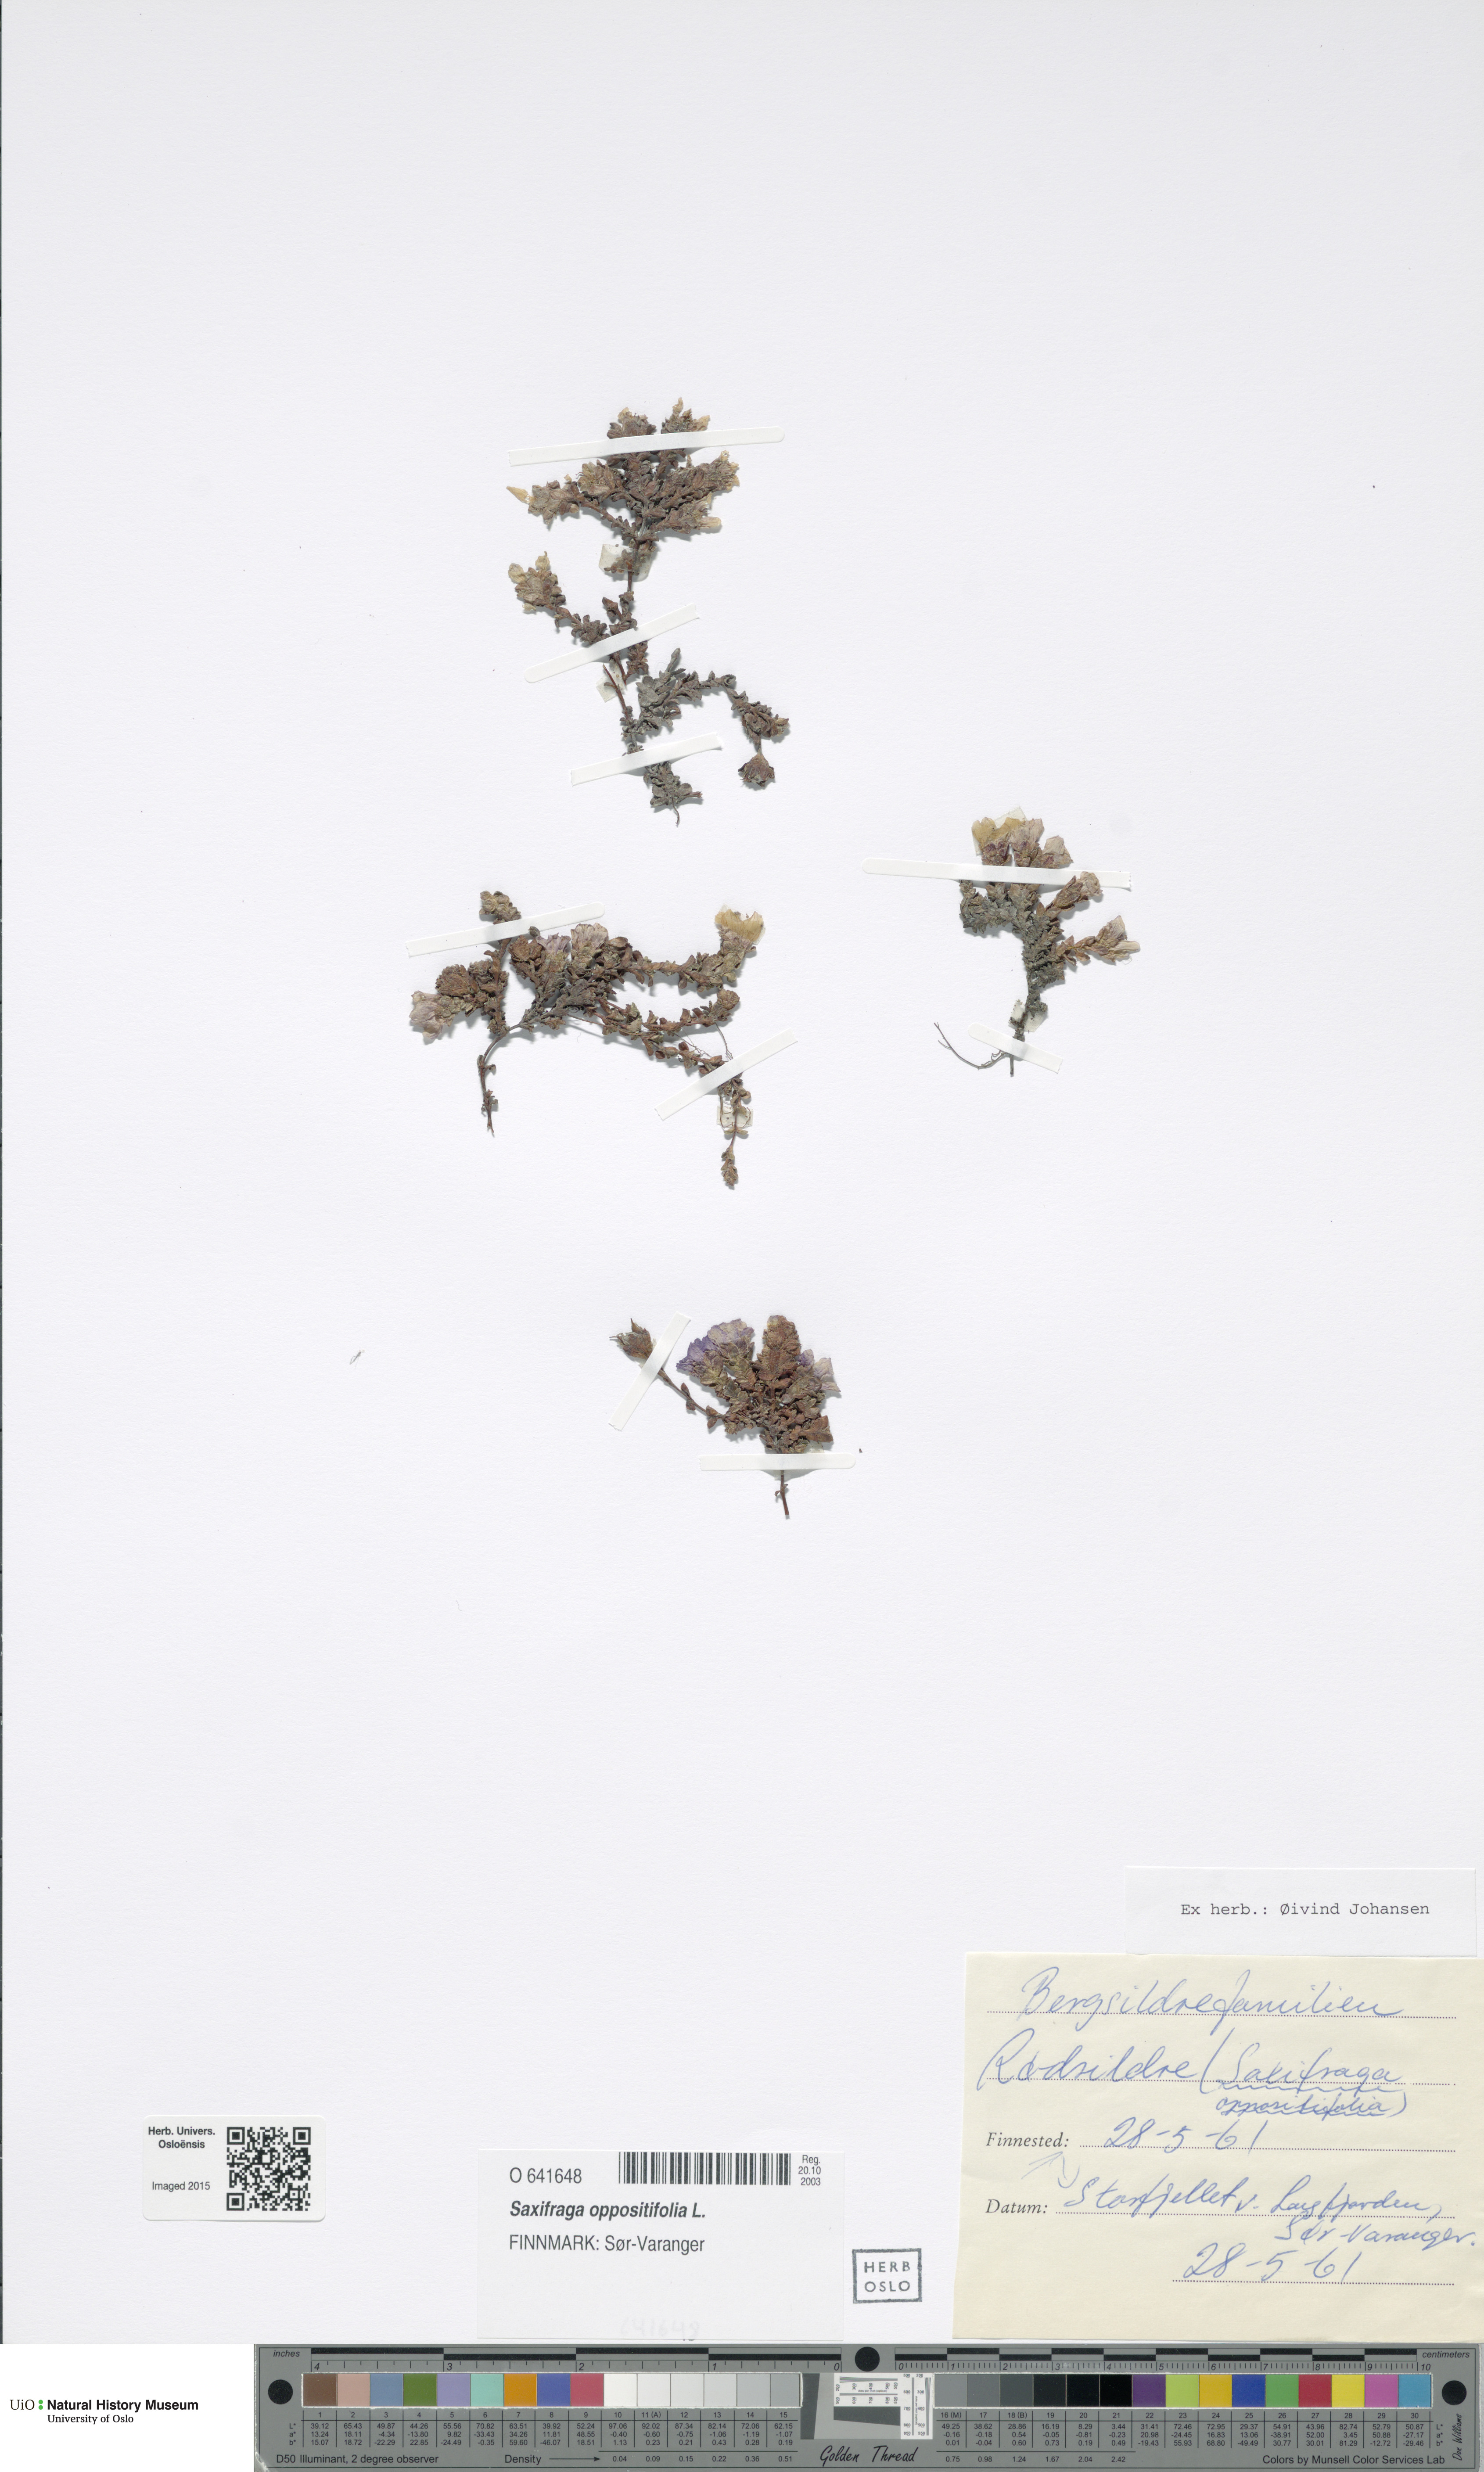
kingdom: Plantae
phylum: Tracheophyta
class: Magnoliopsida
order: Saxifragales
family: Saxifragaceae
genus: Saxifraga
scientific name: Saxifraga oppositifolia
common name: Purple saxifrage
